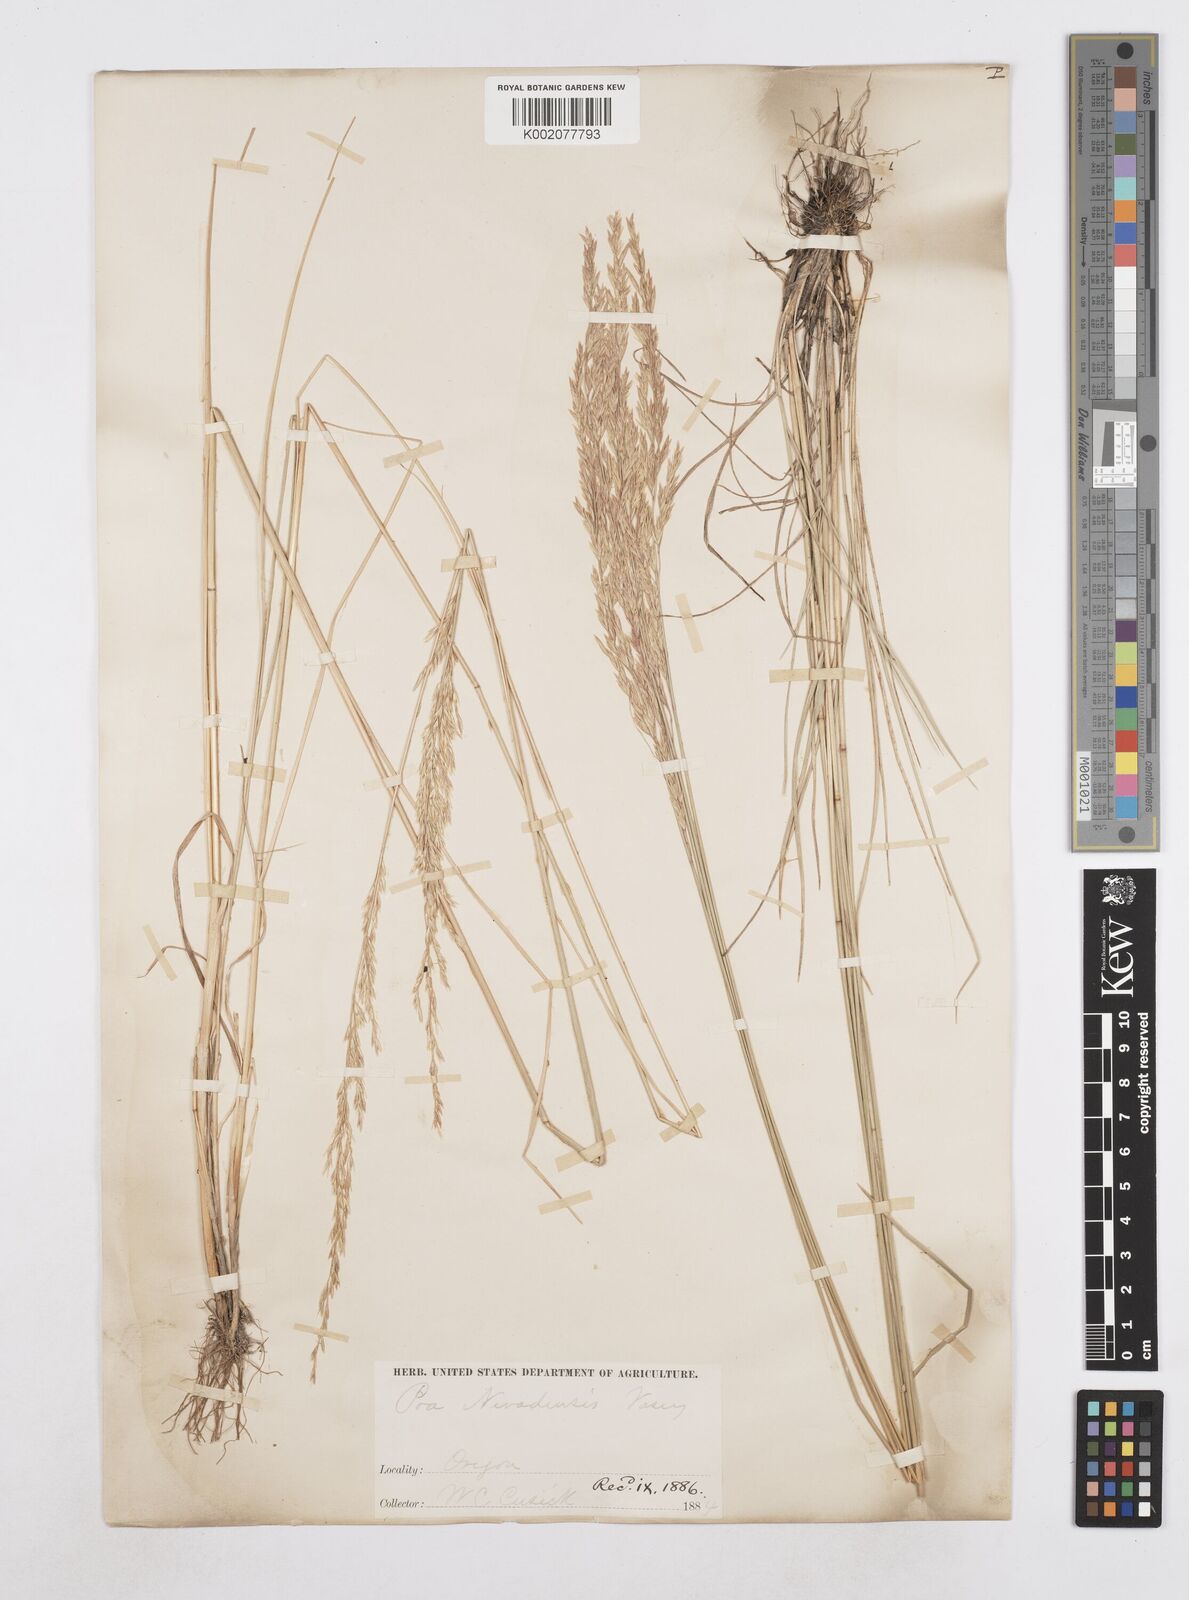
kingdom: Plantae
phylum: Tracheophyta
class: Liliopsida
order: Poales
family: Poaceae
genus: Poa
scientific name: Poa secunda
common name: Sandberg bluegrass
